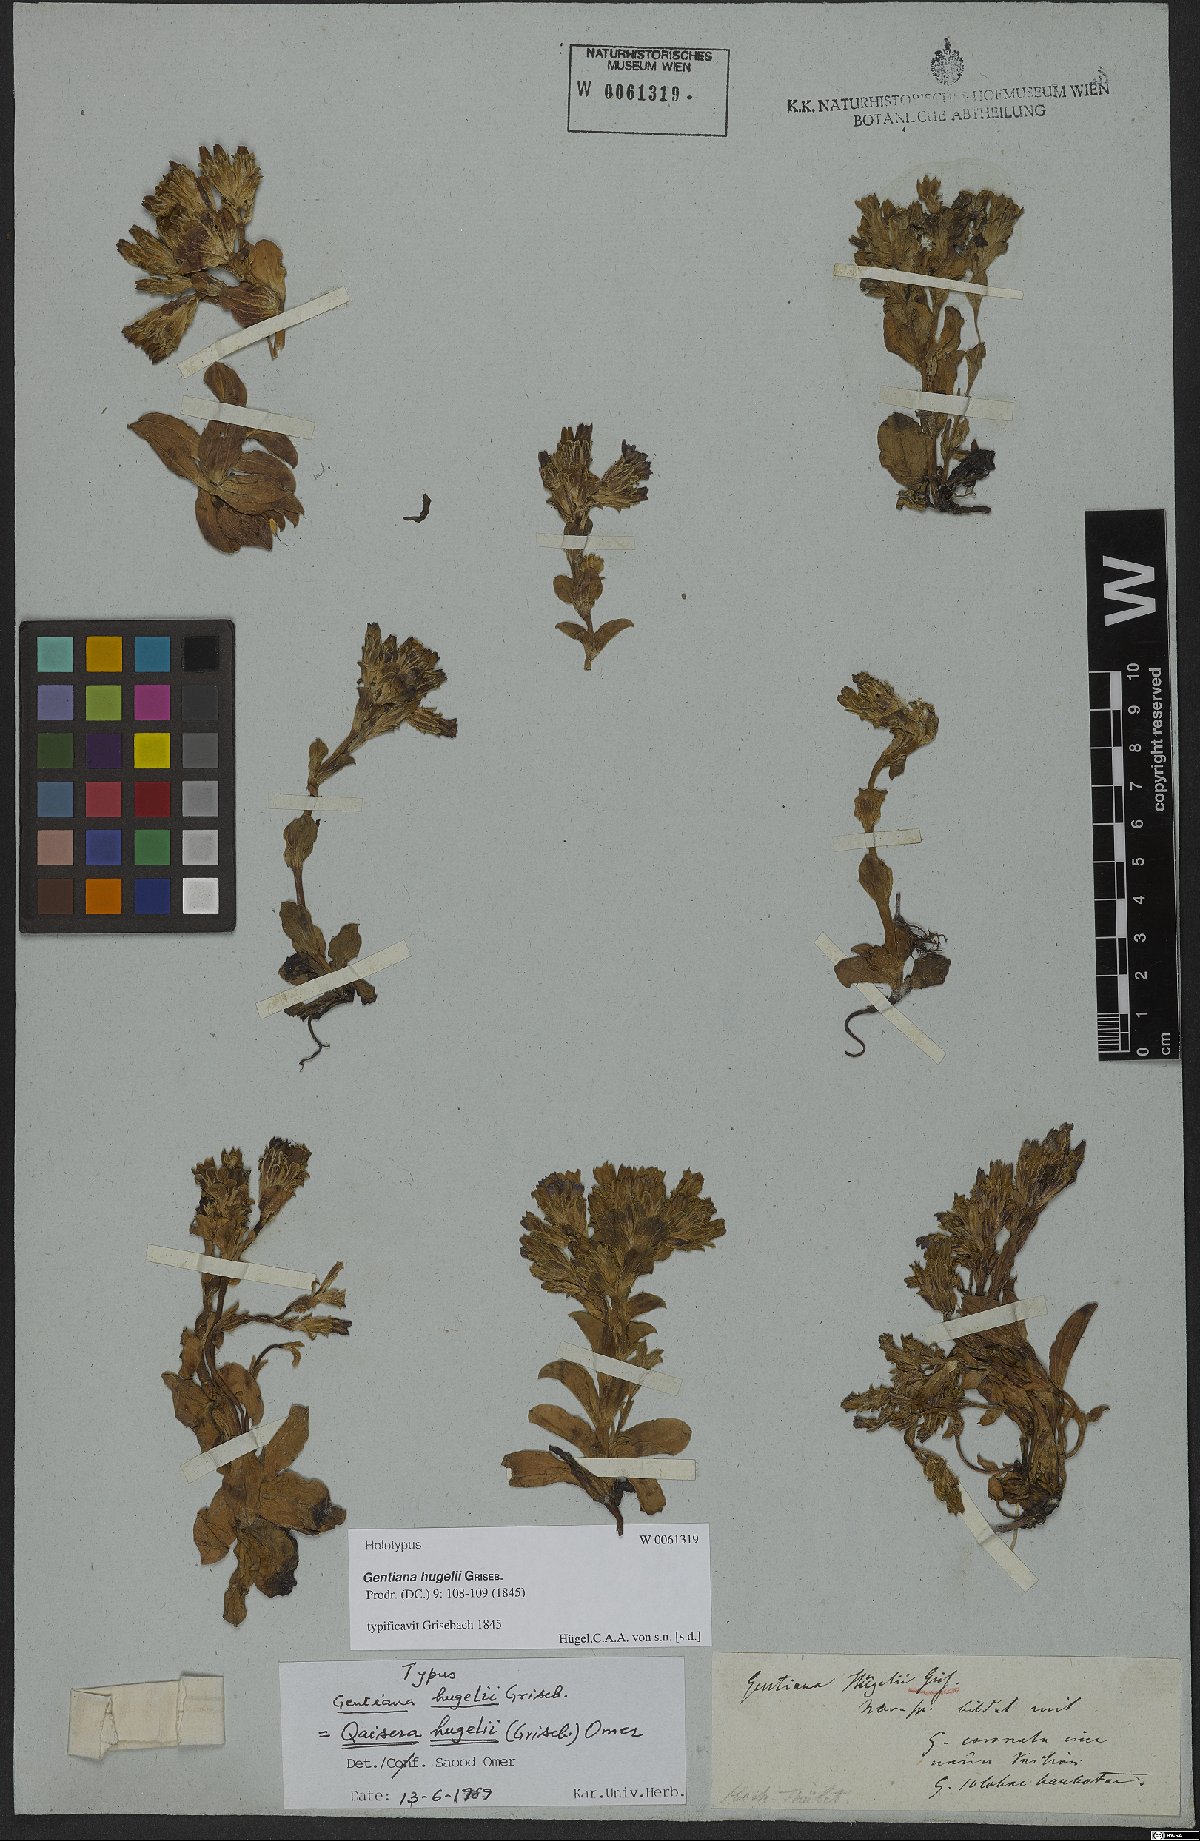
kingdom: Plantae
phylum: Tracheophyta
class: Magnoliopsida
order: Gentianales
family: Gentianaceae
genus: Gentiana
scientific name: Gentiana hugelii
